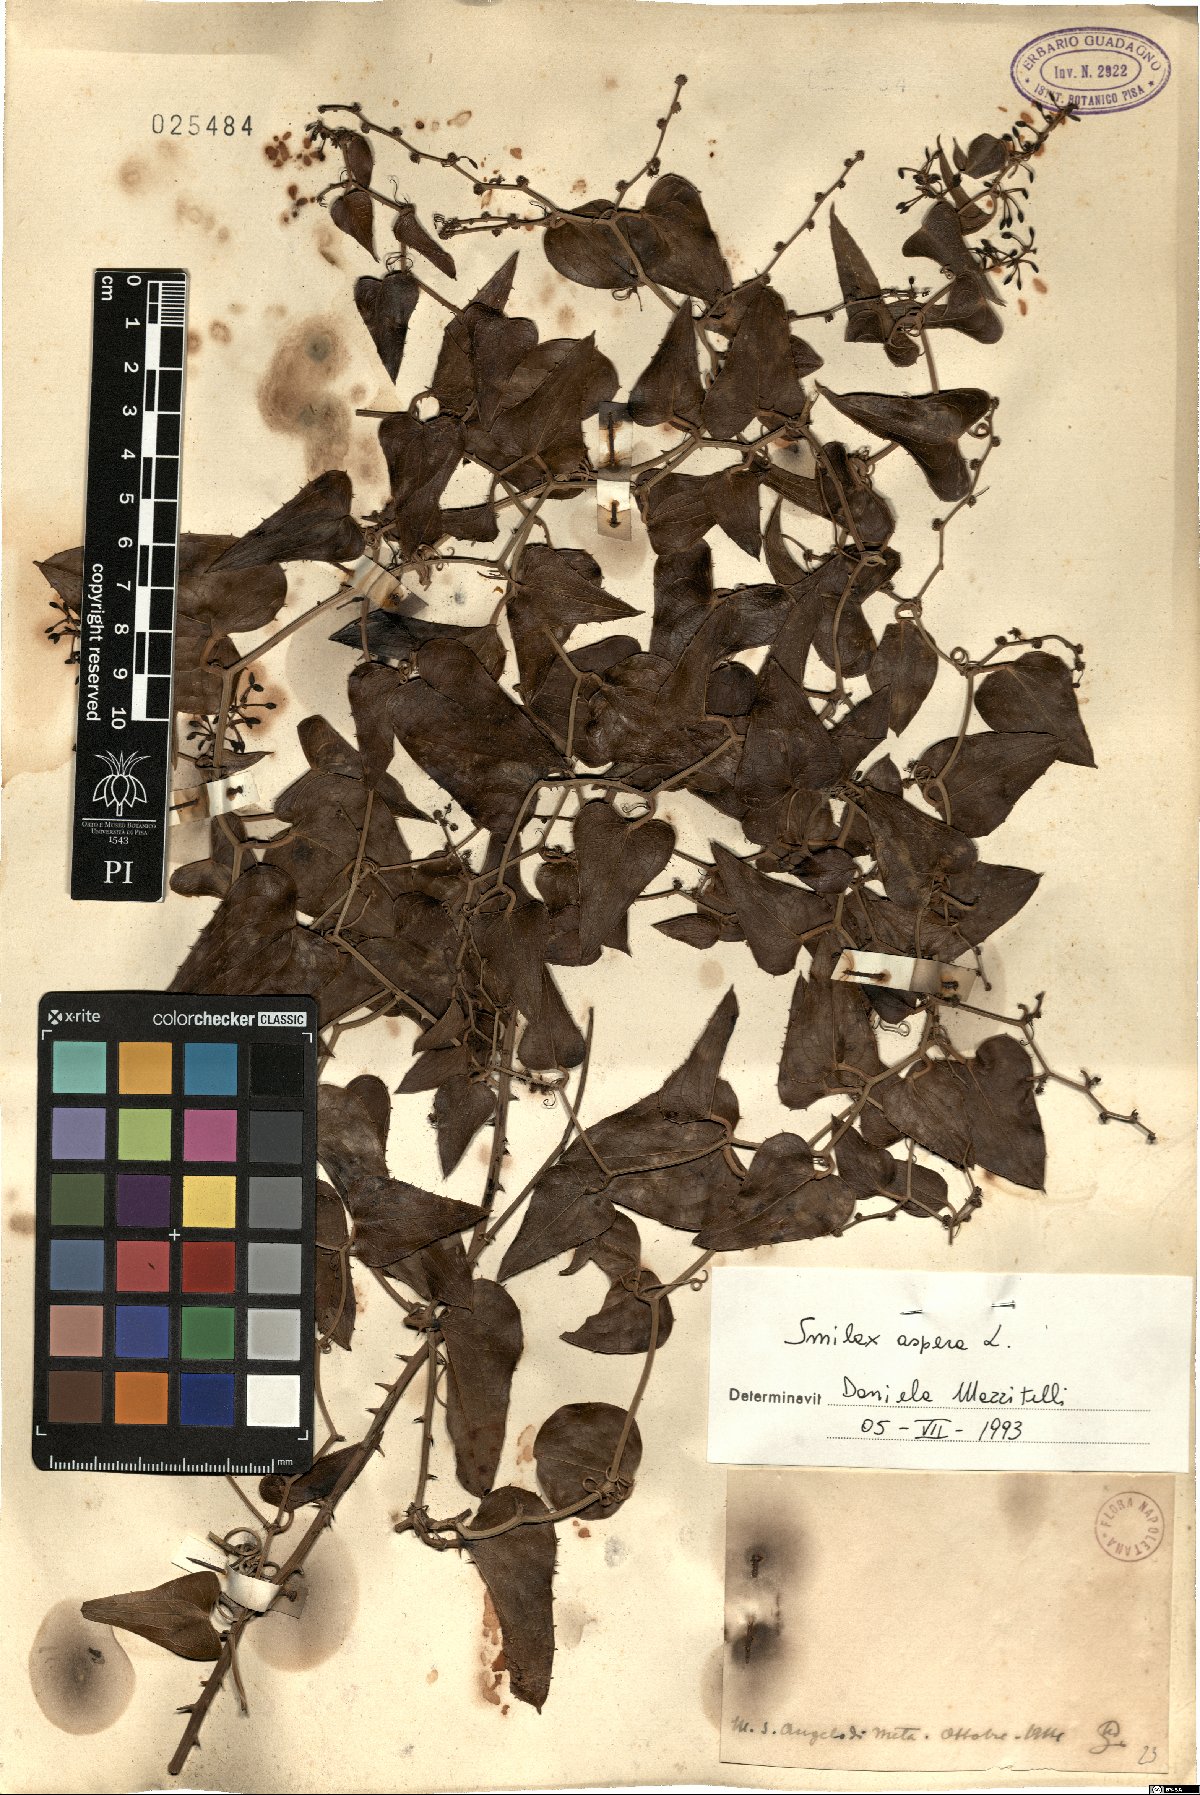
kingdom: Plantae
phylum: Tracheophyta
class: Liliopsida
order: Liliales
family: Smilacaceae
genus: Smilax
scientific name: Smilax aspera
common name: Common smilax
